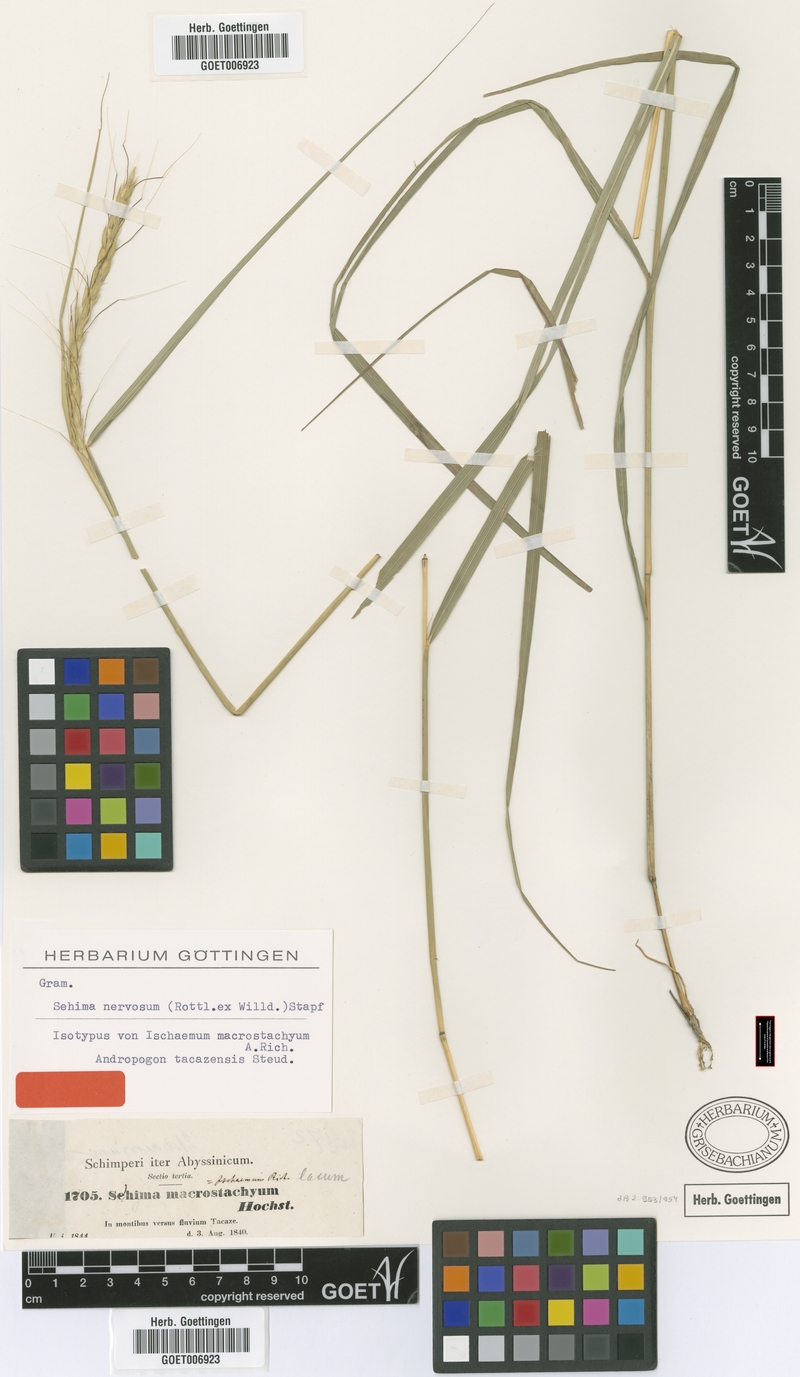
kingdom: Plantae
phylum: Tracheophyta
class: Liliopsida
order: Poales
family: Poaceae
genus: Sehima
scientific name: Sehima nervosa
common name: Rat-tail grass
